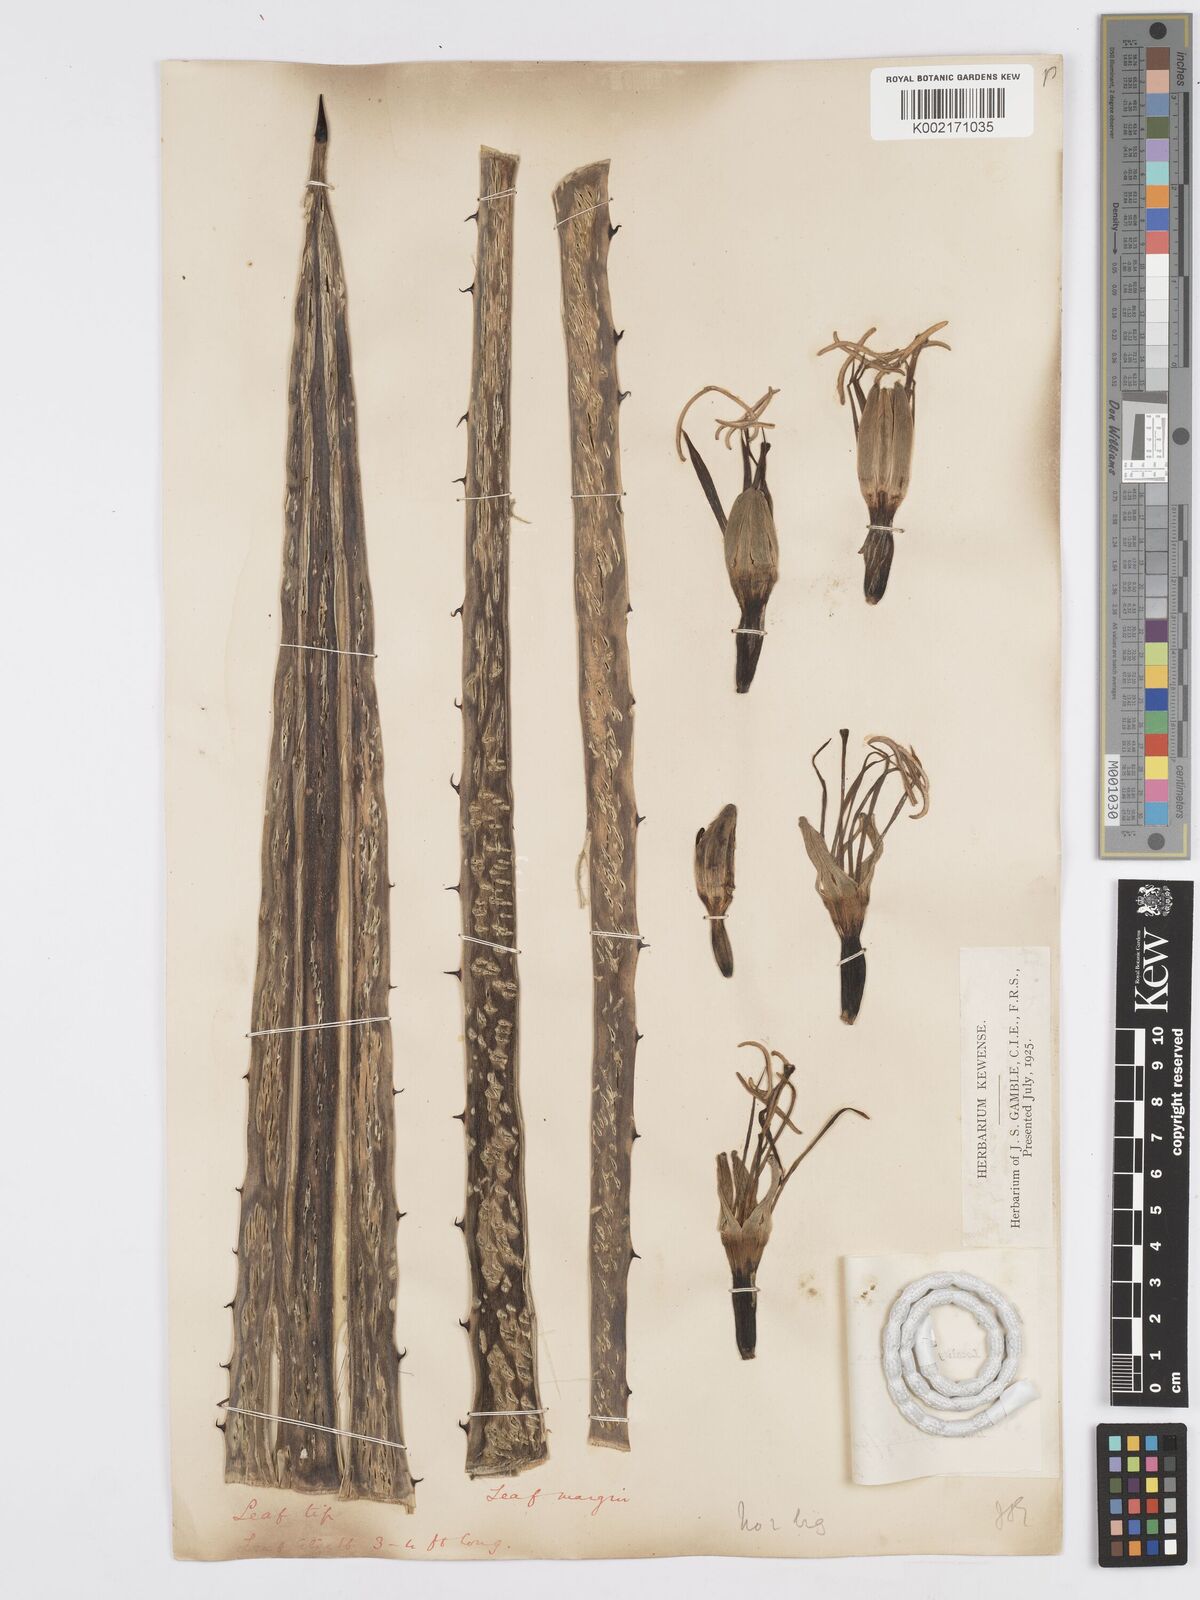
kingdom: Plantae
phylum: Tracheophyta
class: Liliopsida
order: Asparagales
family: Asparagaceae
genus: Agave
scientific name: Agave americana
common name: Centuryplant
